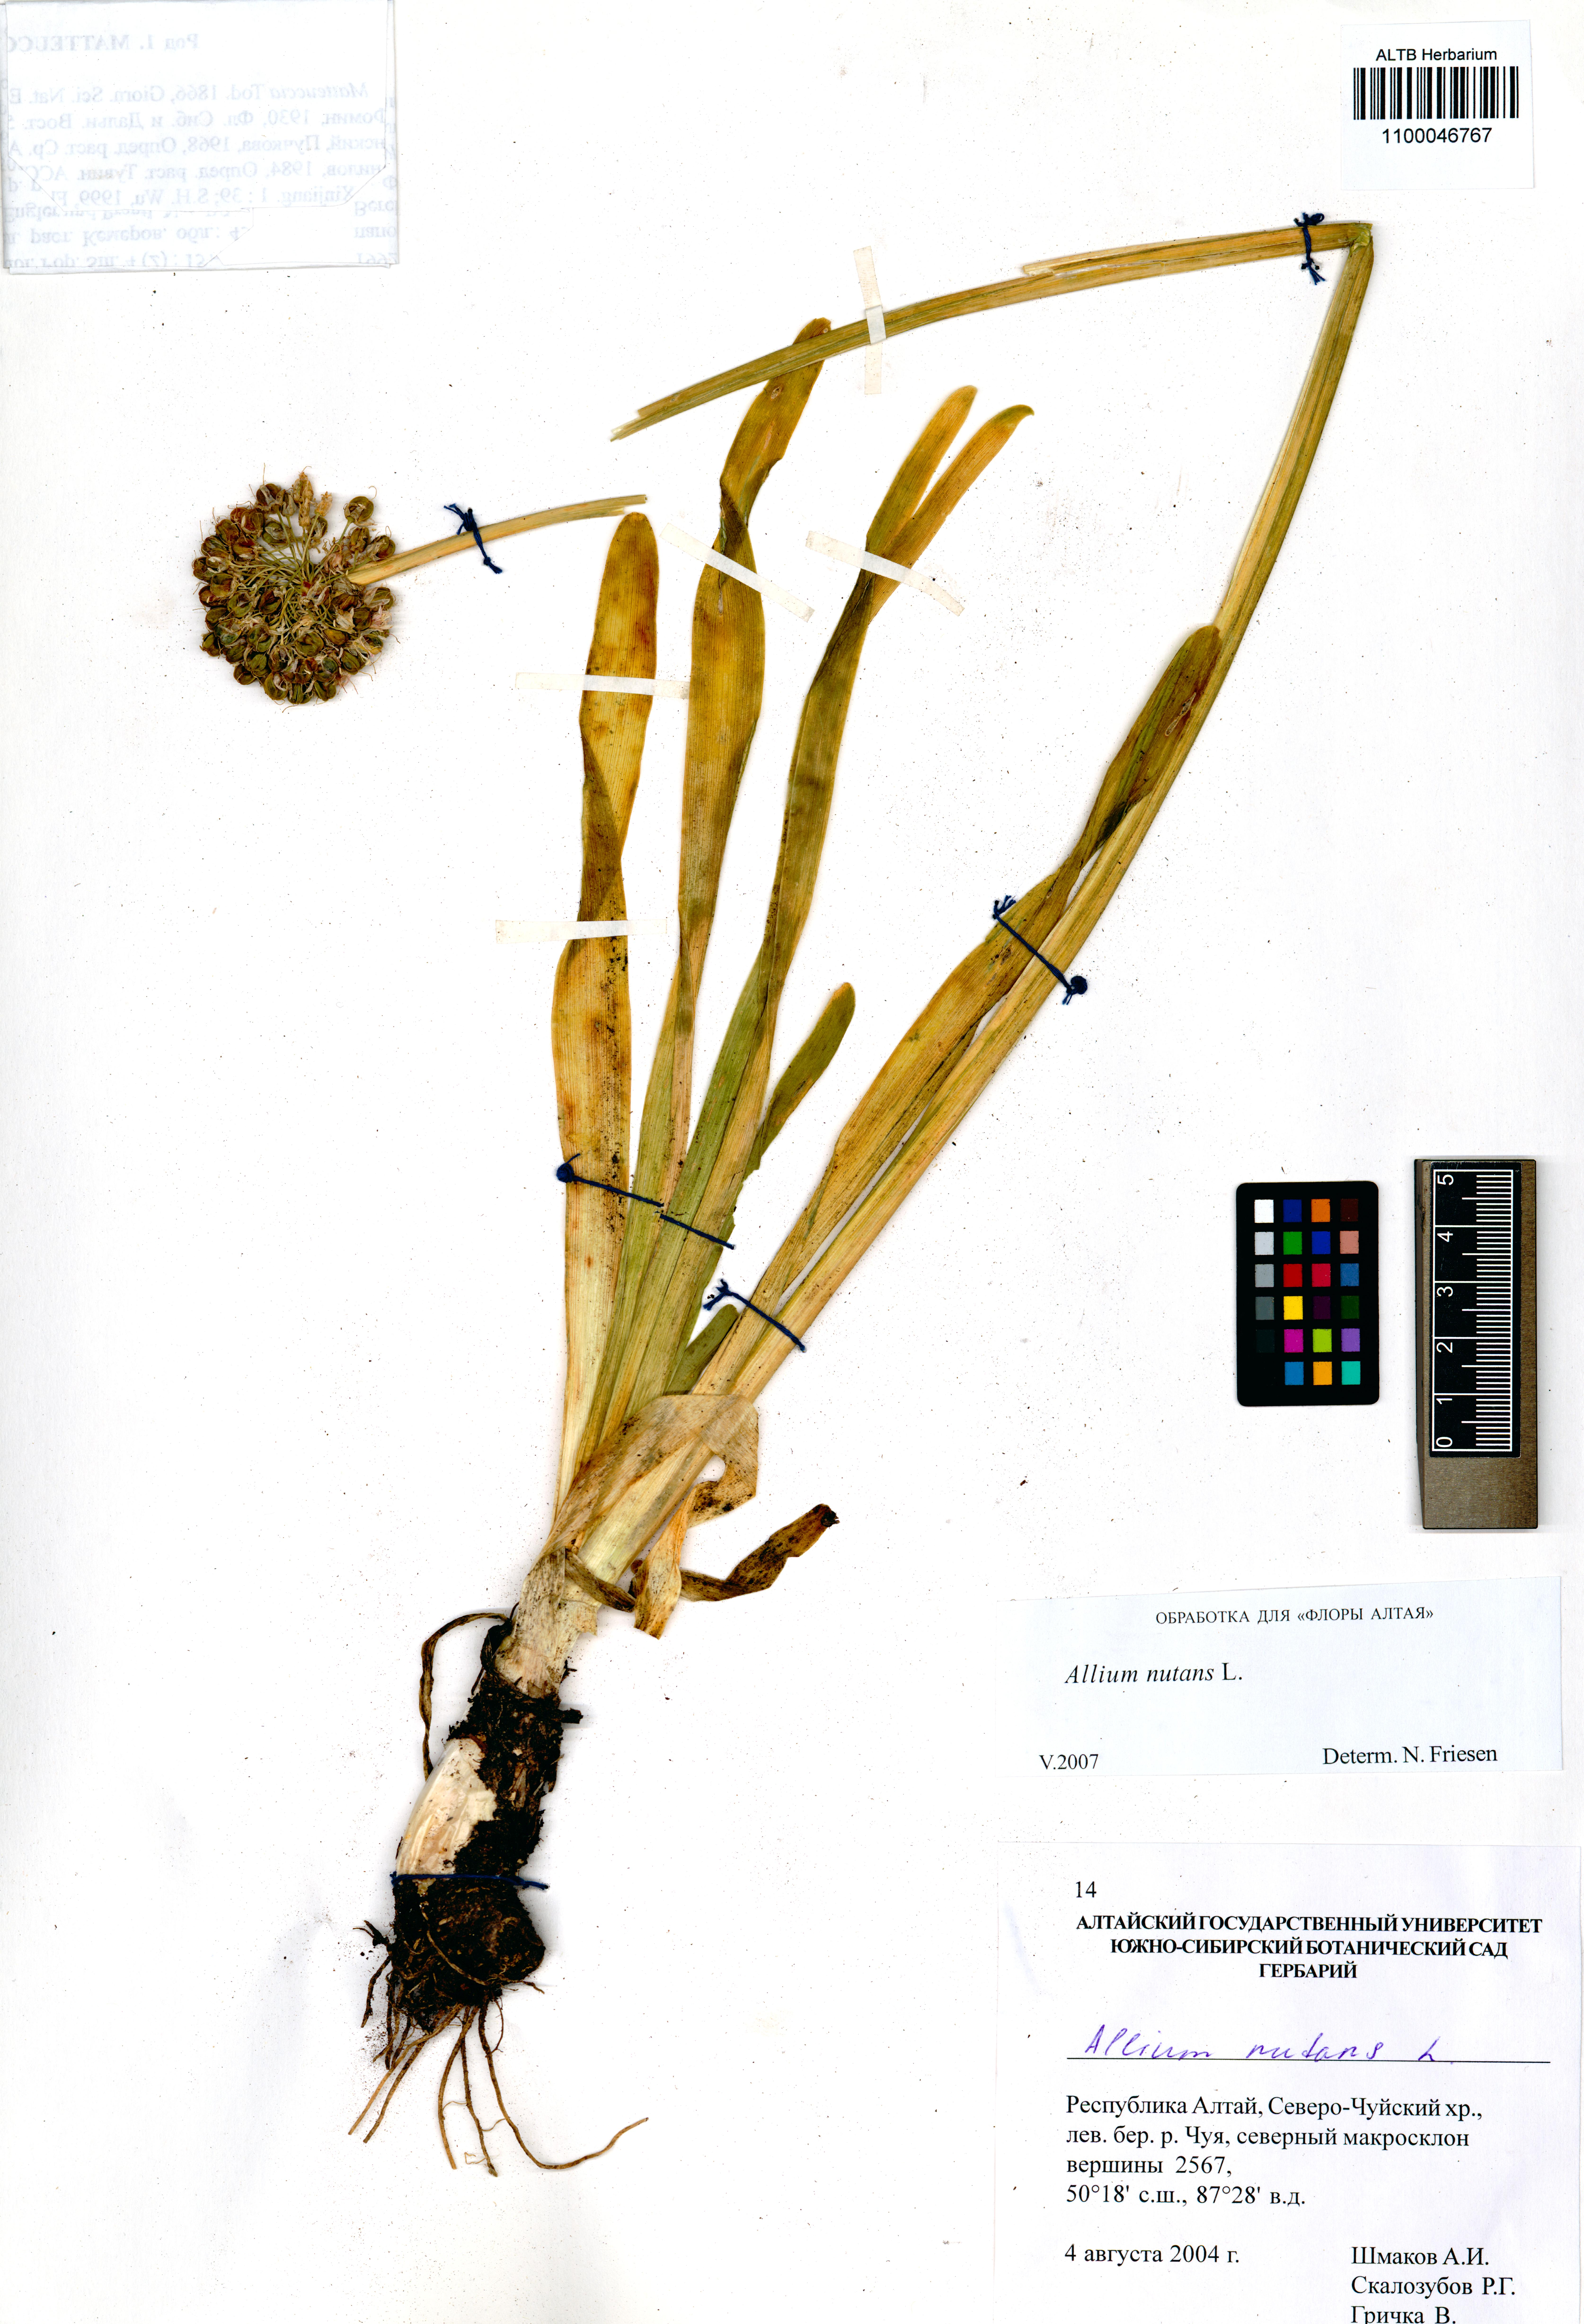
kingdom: Plantae
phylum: Tracheophyta
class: Liliopsida
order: Asparagales
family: Amaryllidaceae
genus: Allium
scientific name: Allium nutans
